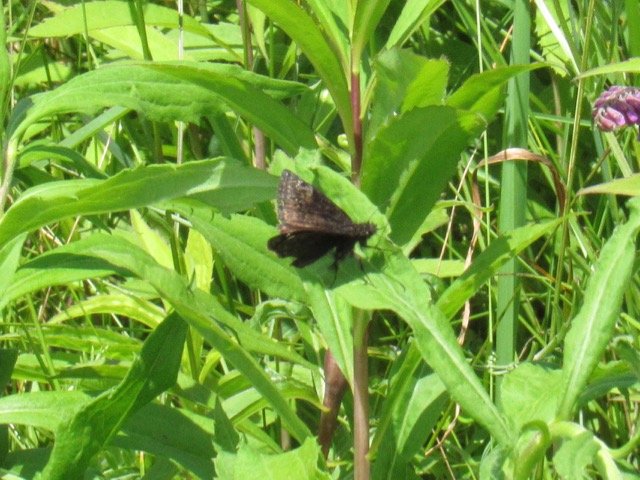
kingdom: Animalia
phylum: Arthropoda
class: Insecta
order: Lepidoptera
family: Hesperiidae
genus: Gesta
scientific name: Gesta
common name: Wild Indigo Duskywing
